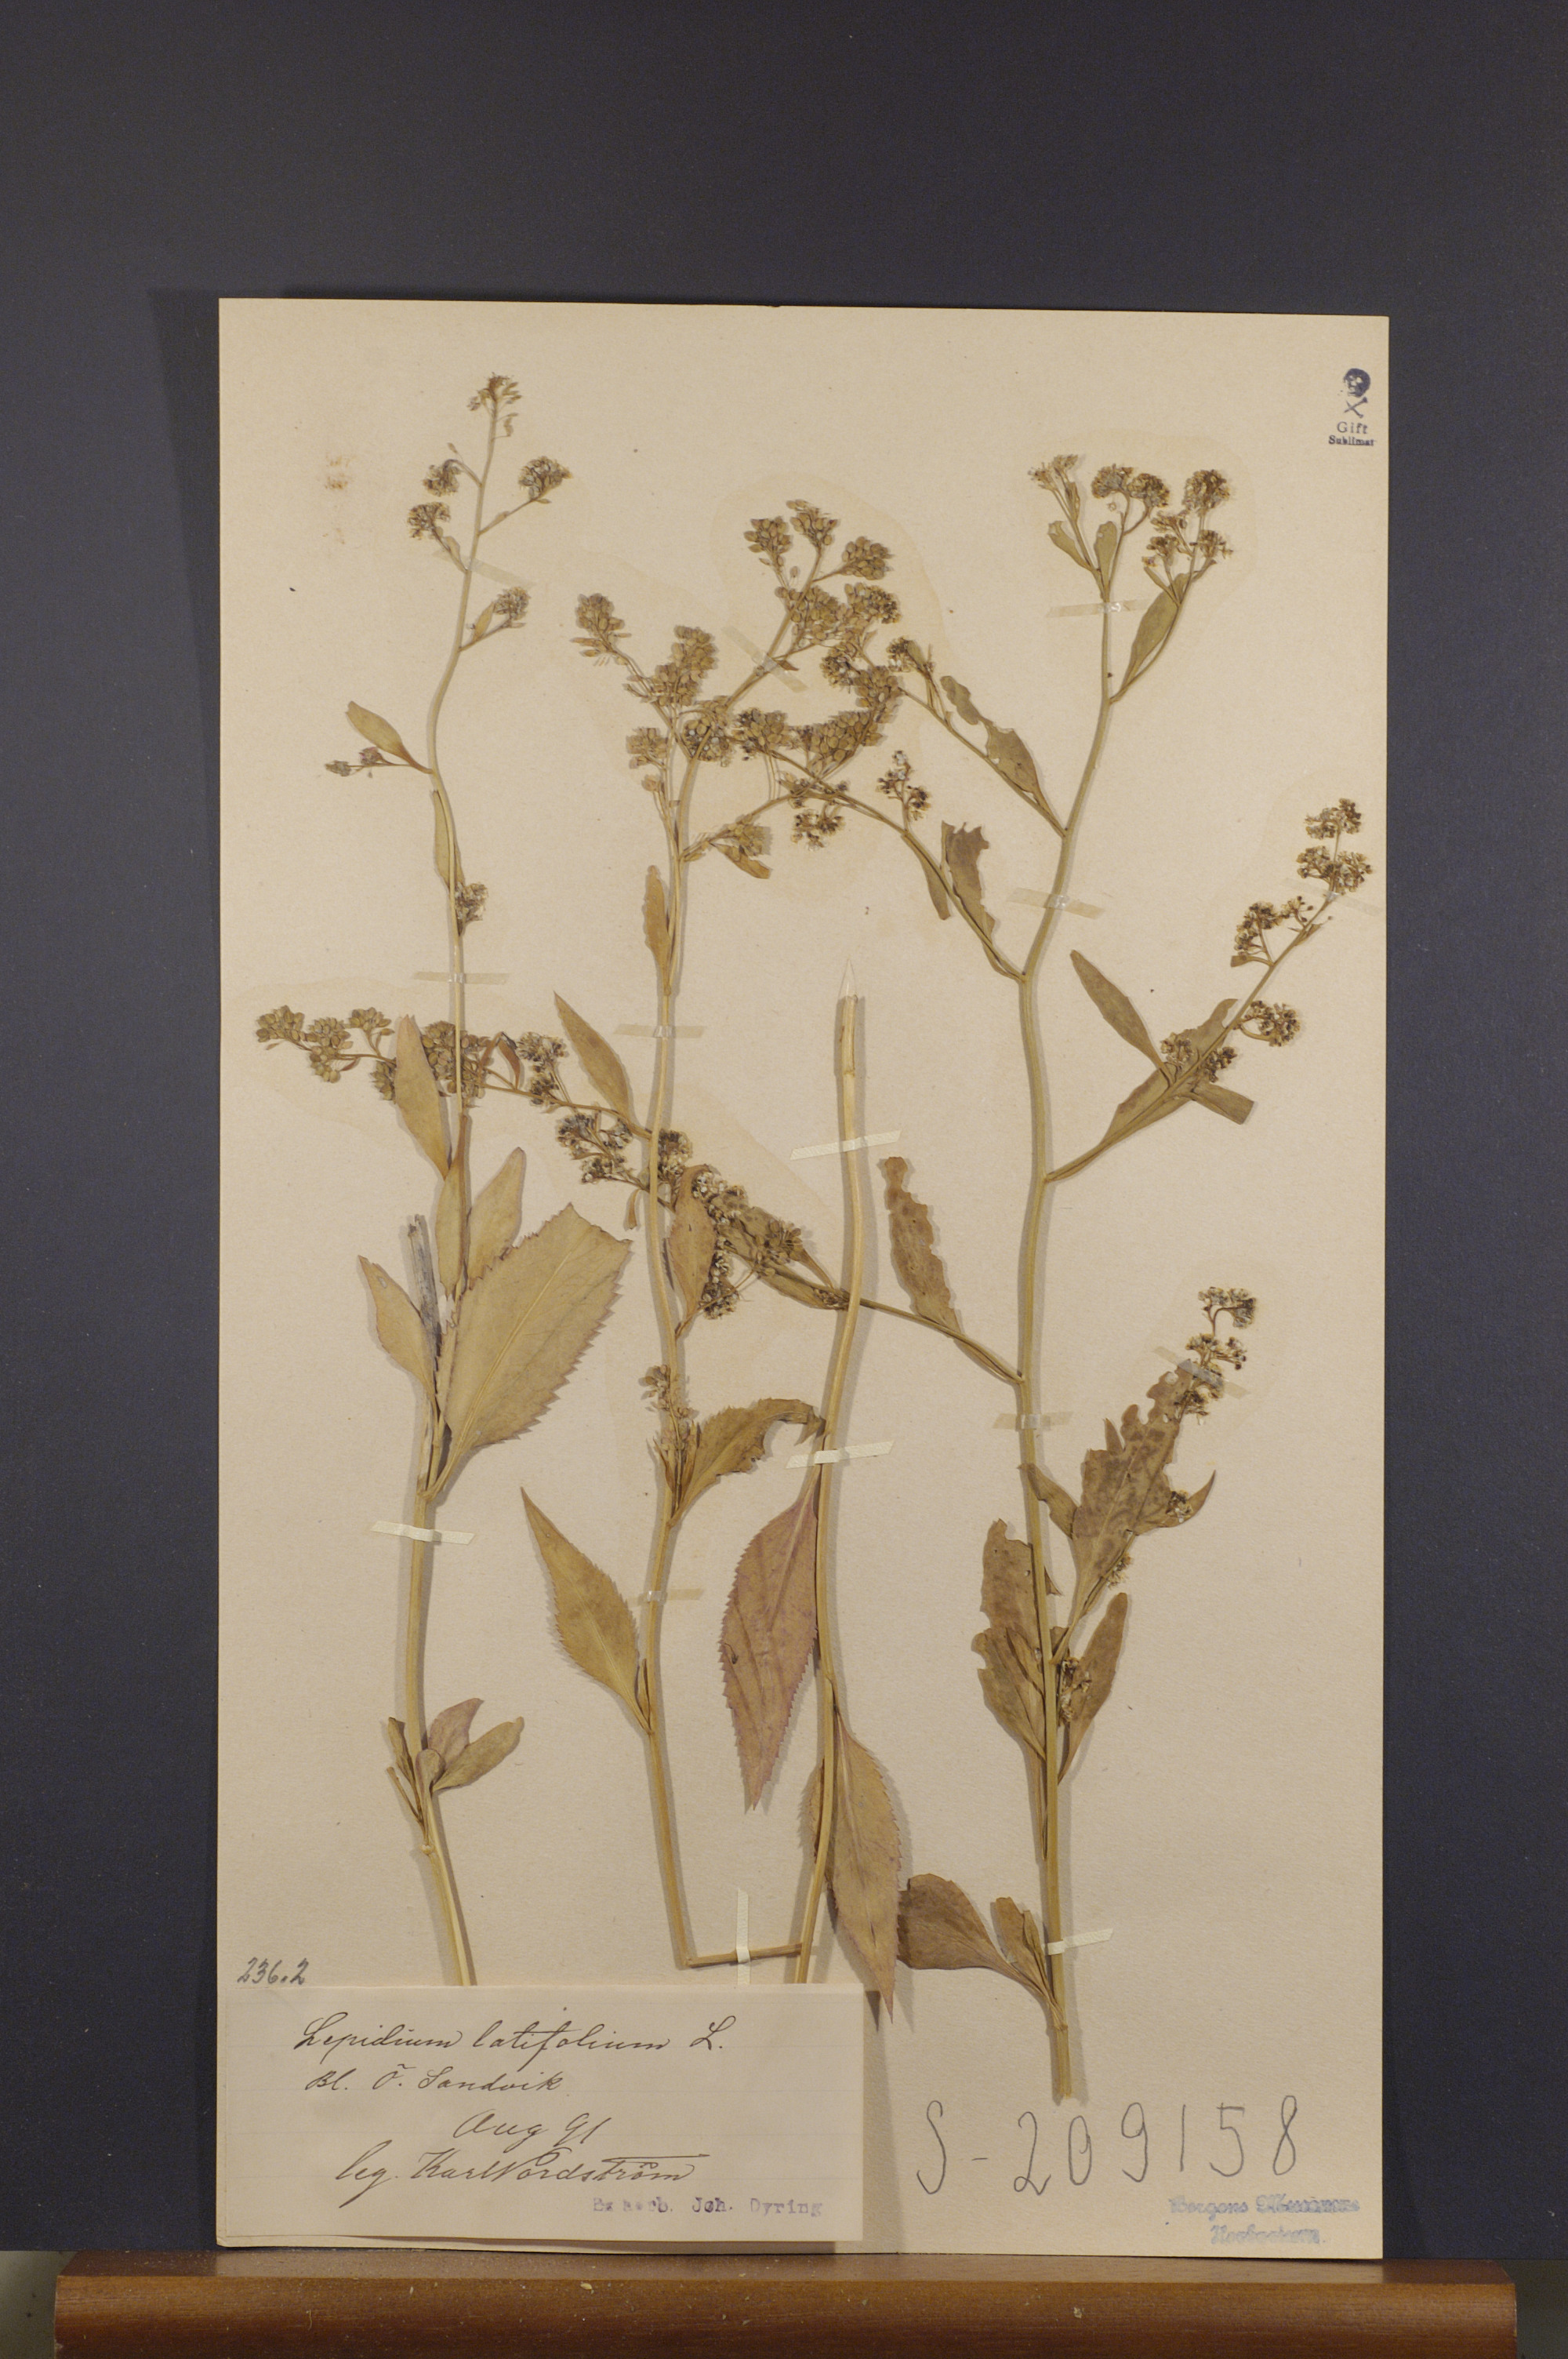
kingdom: Plantae
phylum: Tracheophyta
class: Magnoliopsida
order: Brassicales
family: Brassicaceae
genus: Lepidium
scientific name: Lepidium latifolium
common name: Dittander
